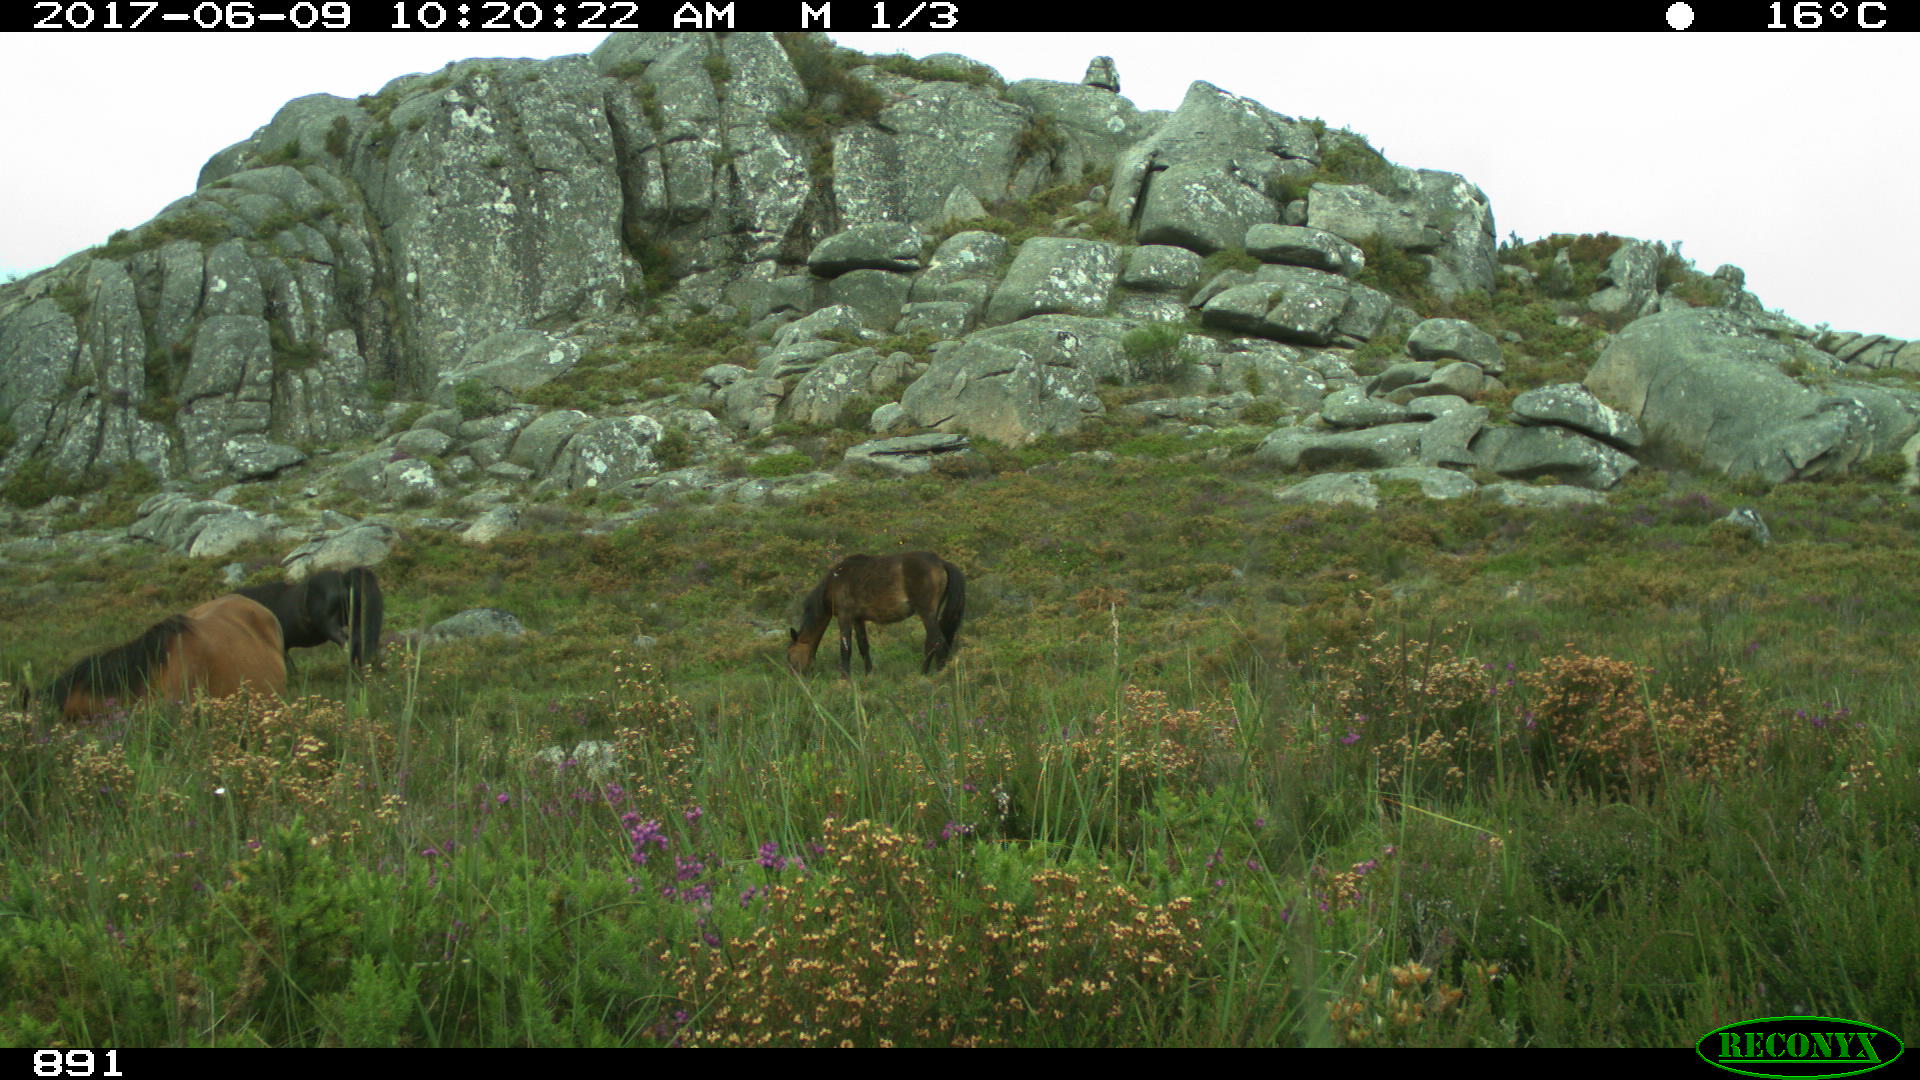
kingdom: Animalia
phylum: Chordata
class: Mammalia
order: Perissodactyla
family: Equidae
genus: Equus
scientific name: Equus caballus
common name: Horse
